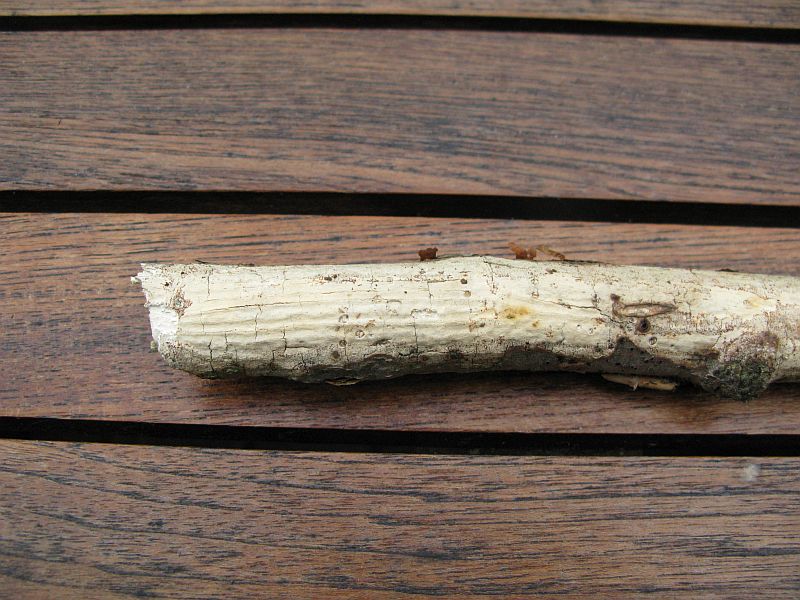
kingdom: Fungi
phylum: Basidiomycota
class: Agaricomycetes
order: Corticiales
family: Vuilleminiaceae
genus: Vuilleminia
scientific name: Vuilleminia comedens
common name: almindelig barksprænger
